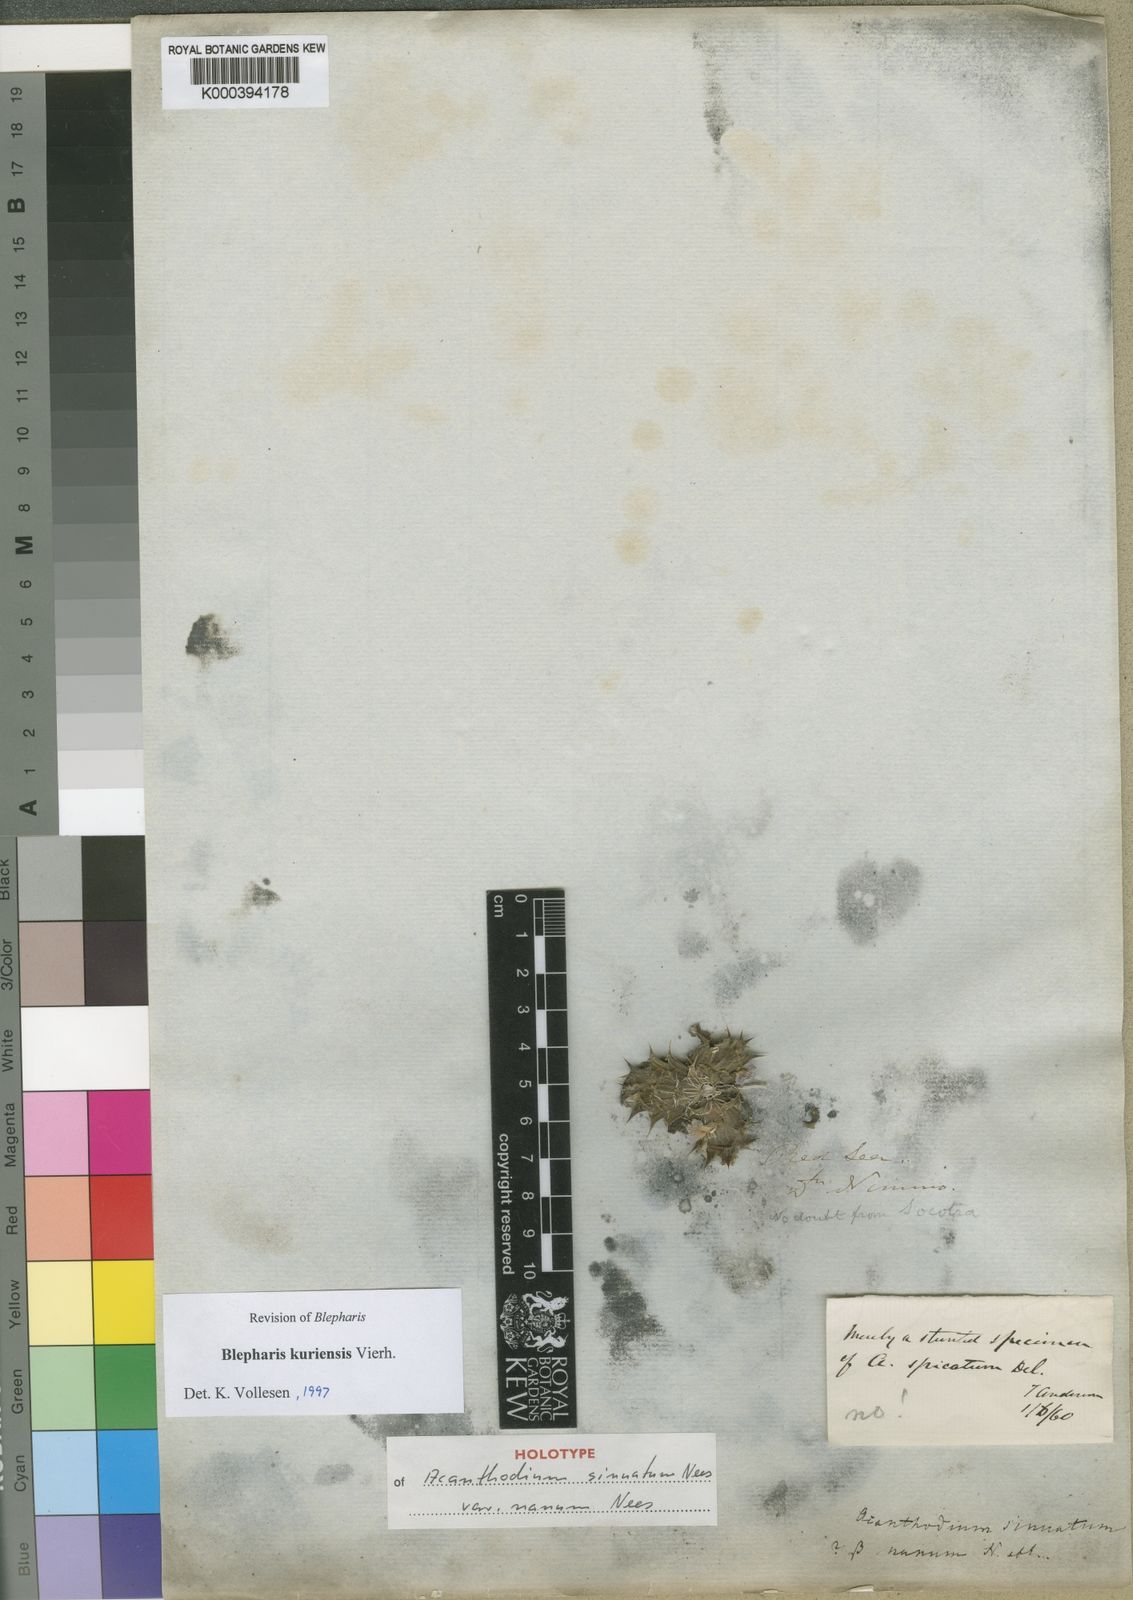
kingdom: Plantae
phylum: Tracheophyta
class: Magnoliopsida
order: Lamiales
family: Acanthaceae
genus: Blepharis
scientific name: Blepharis kuriensis
